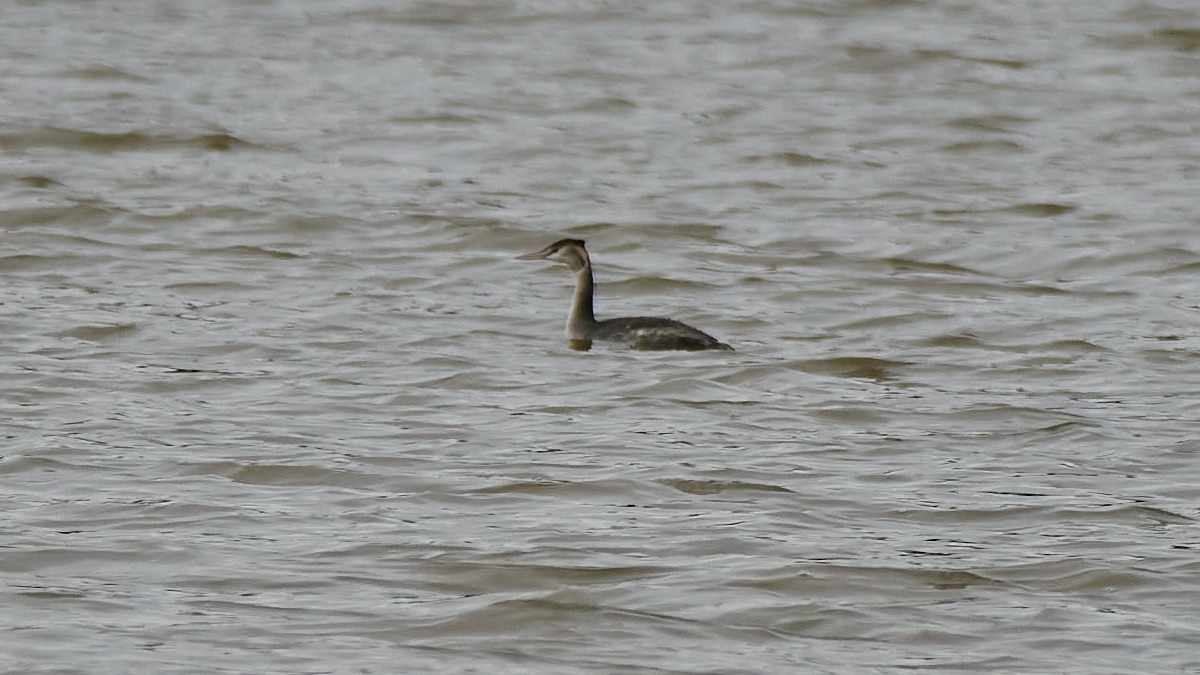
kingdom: Animalia
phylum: Chordata
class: Aves
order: Podicipediformes
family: Podicipedidae
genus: Podiceps
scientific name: Podiceps cristatus
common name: Toppet lappedykker
